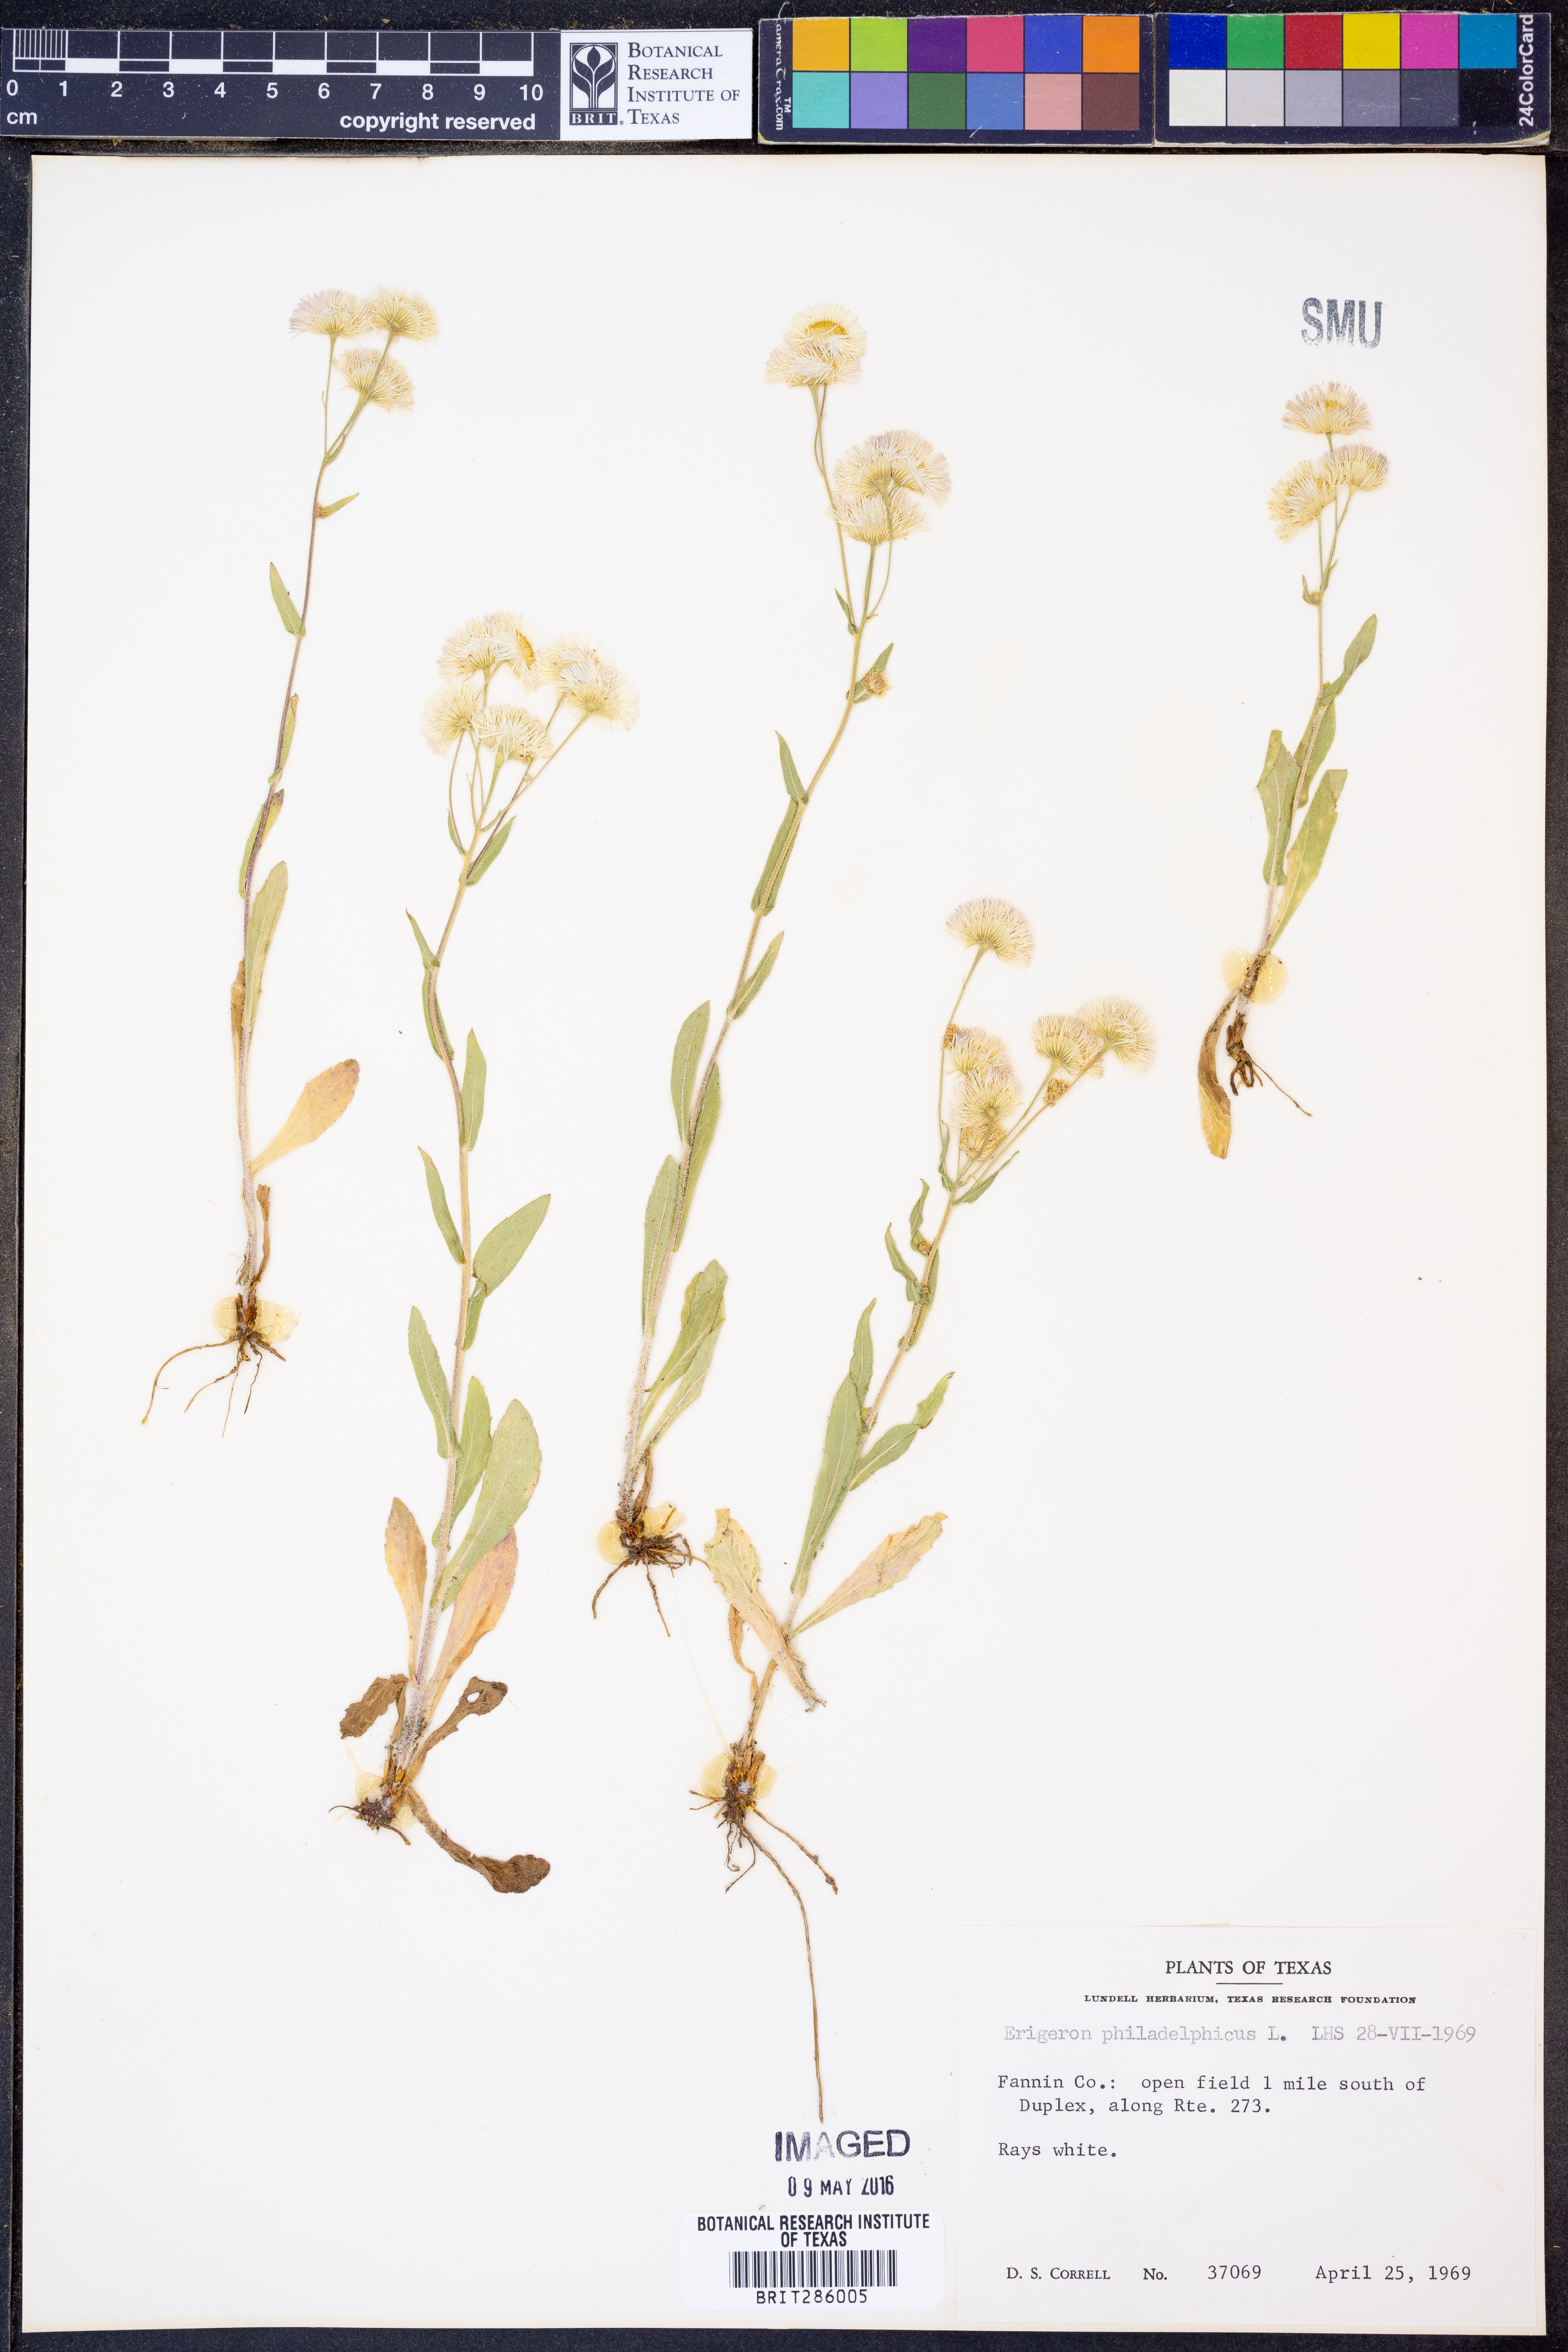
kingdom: Plantae
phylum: Tracheophyta
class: Magnoliopsida
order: Asterales
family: Asteraceae
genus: Erigeron
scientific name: Erigeron philadelphicus
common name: Robin's-plantain
